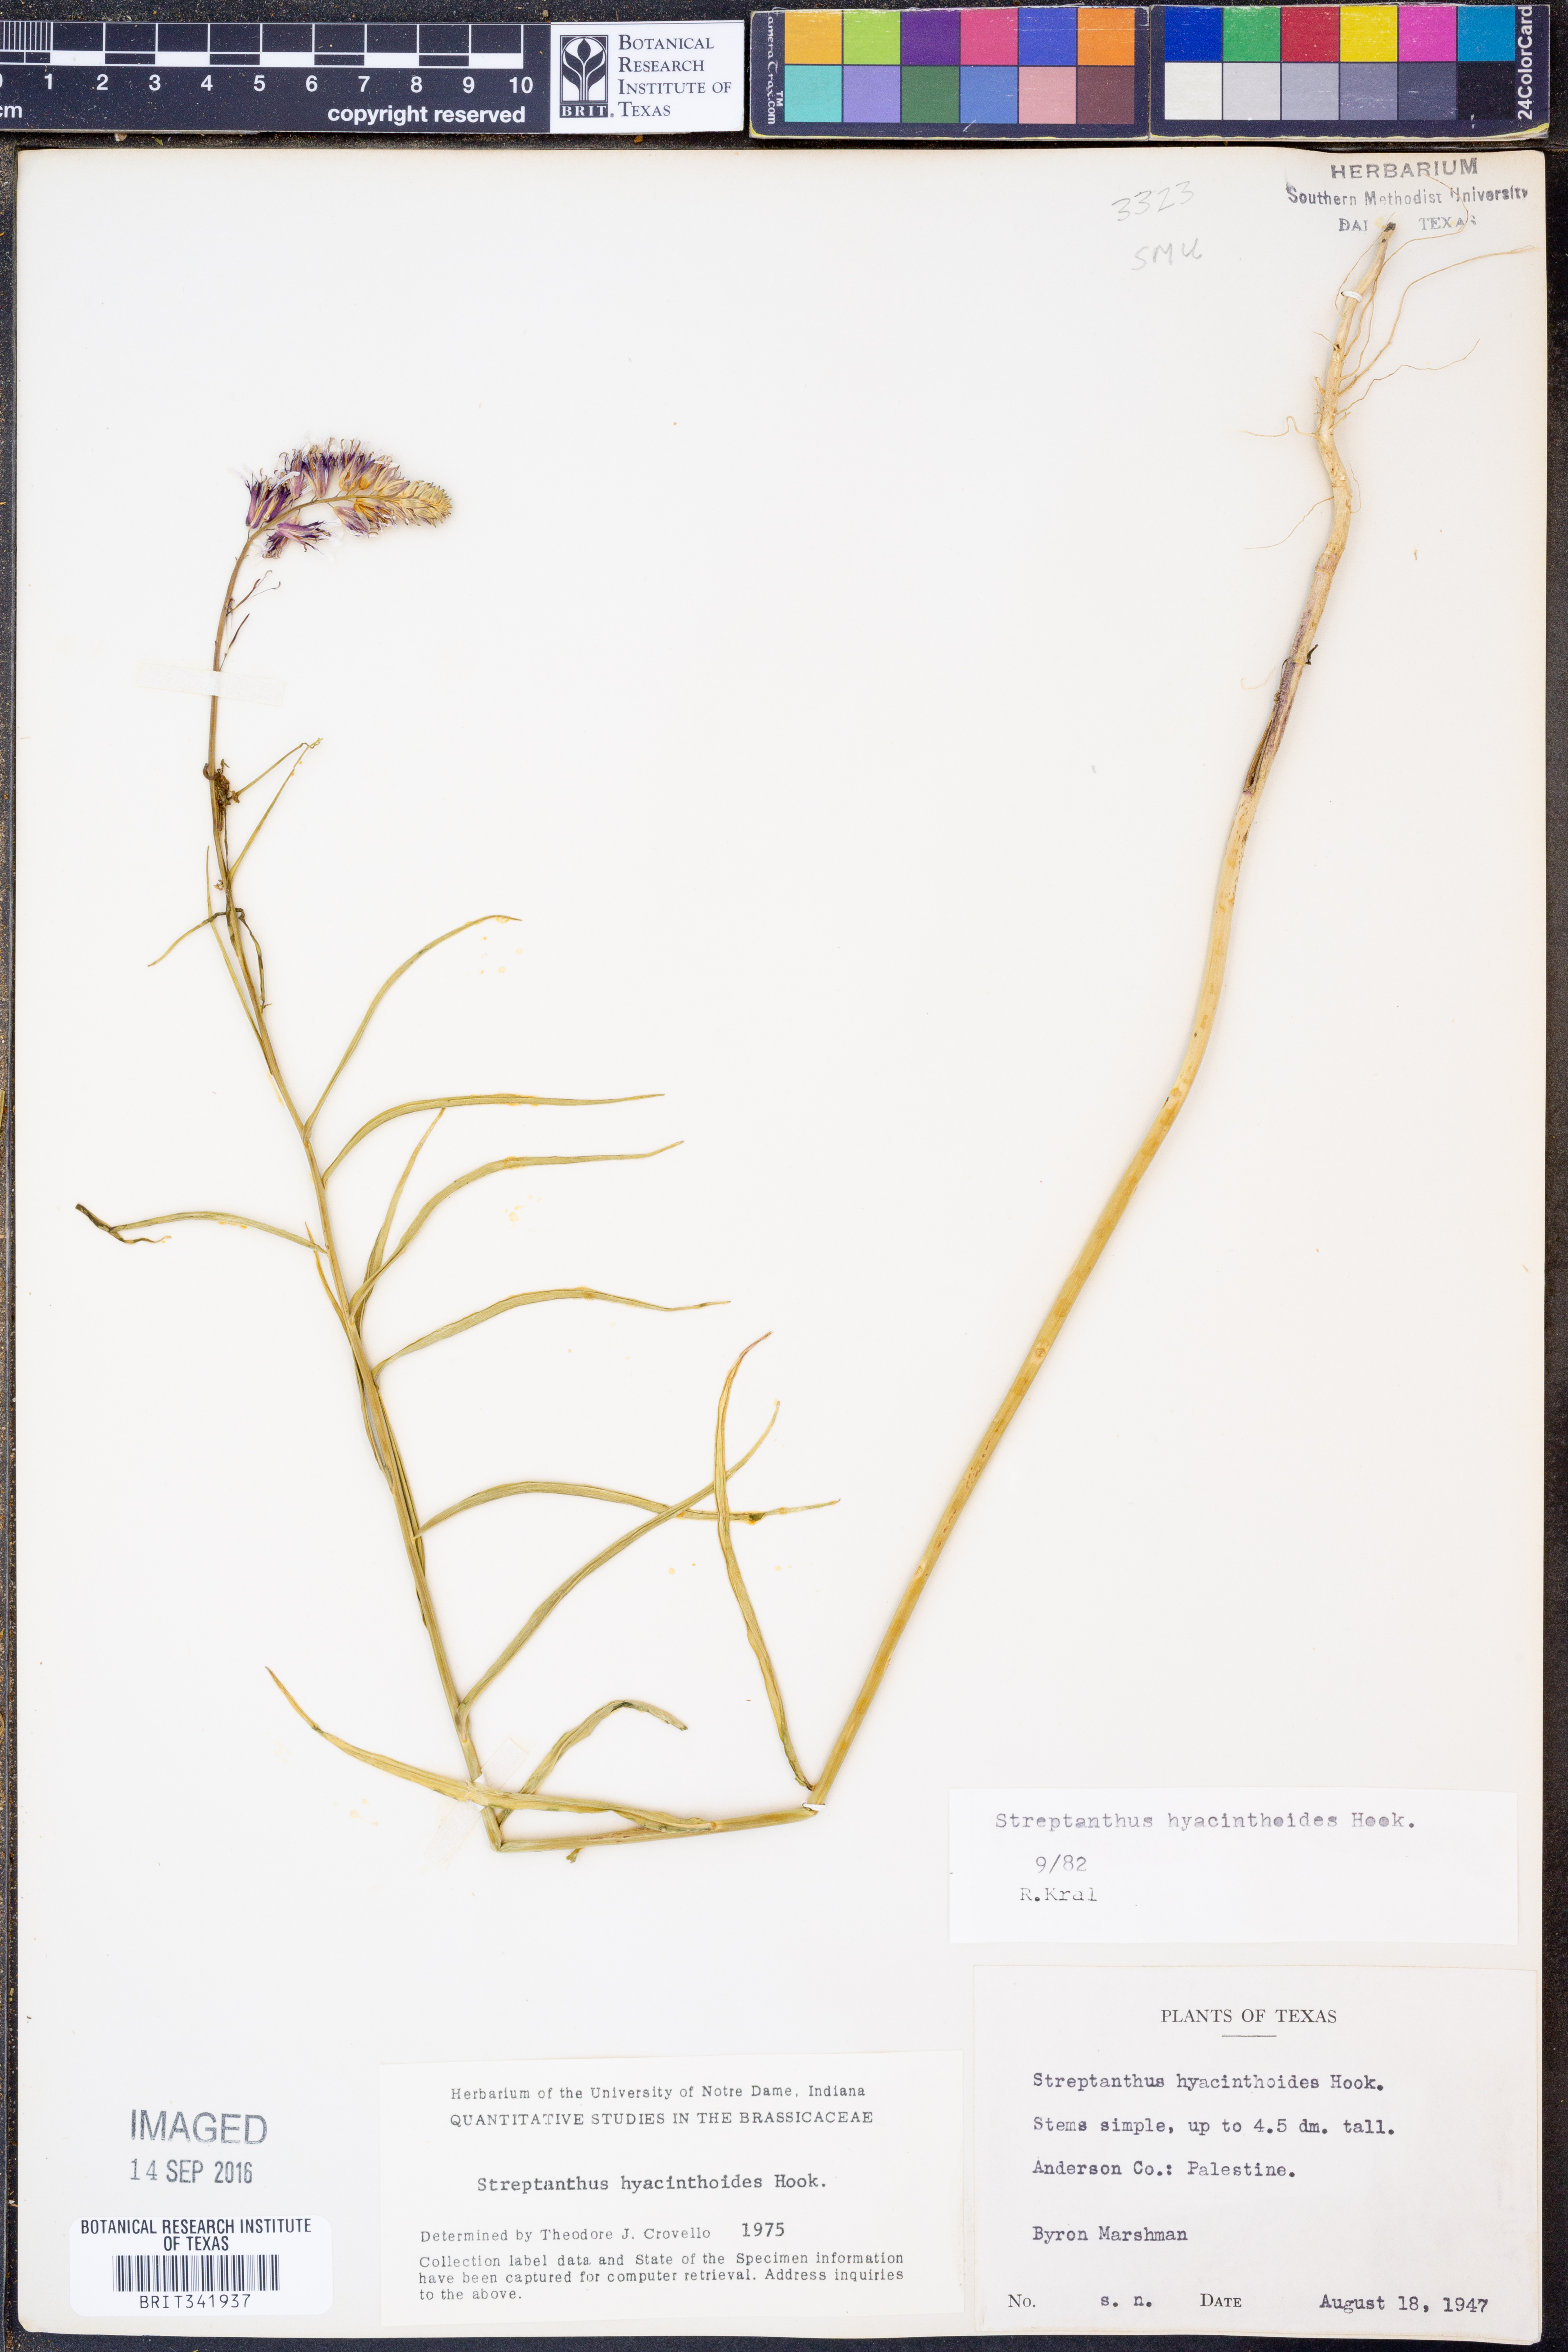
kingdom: Plantae
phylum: Tracheophyta
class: Magnoliopsida
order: Brassicales
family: Brassicaceae
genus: Streptanthus
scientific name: Streptanthus hyacinthoides
